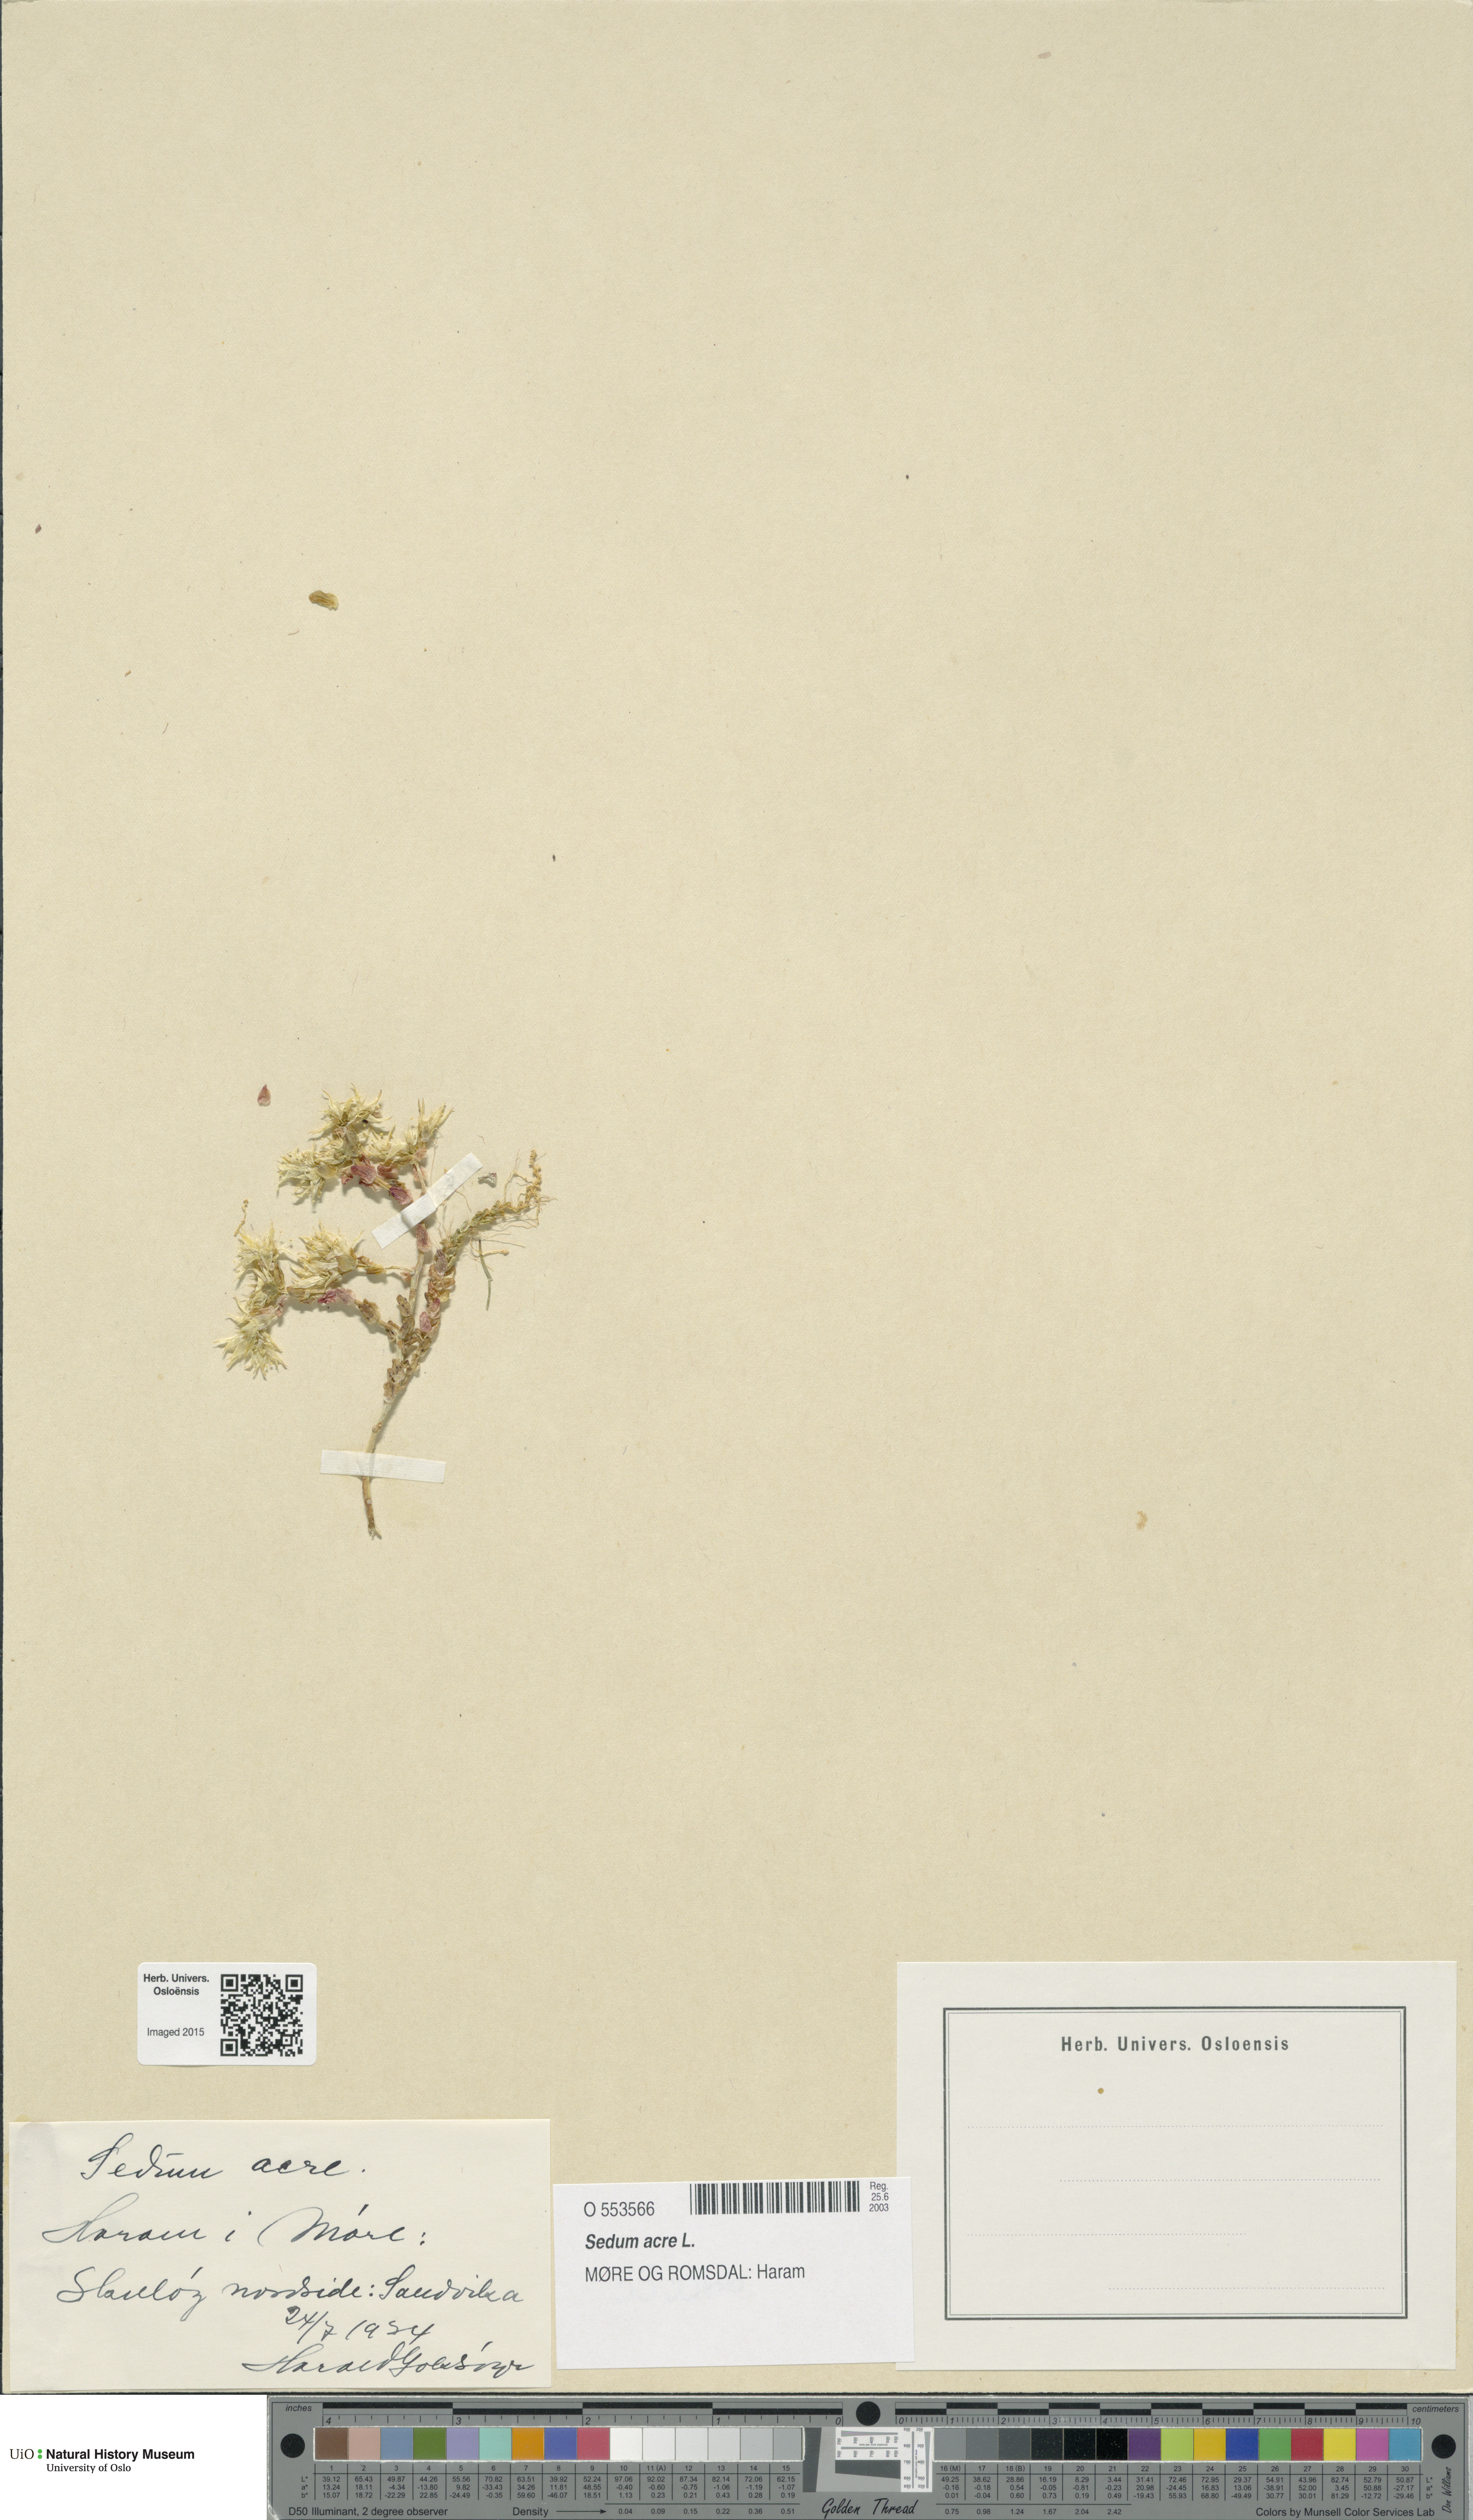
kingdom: Plantae
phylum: Tracheophyta
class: Magnoliopsida
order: Saxifragales
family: Crassulaceae
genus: Sedum
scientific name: Sedum acre
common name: Biting stonecrop
